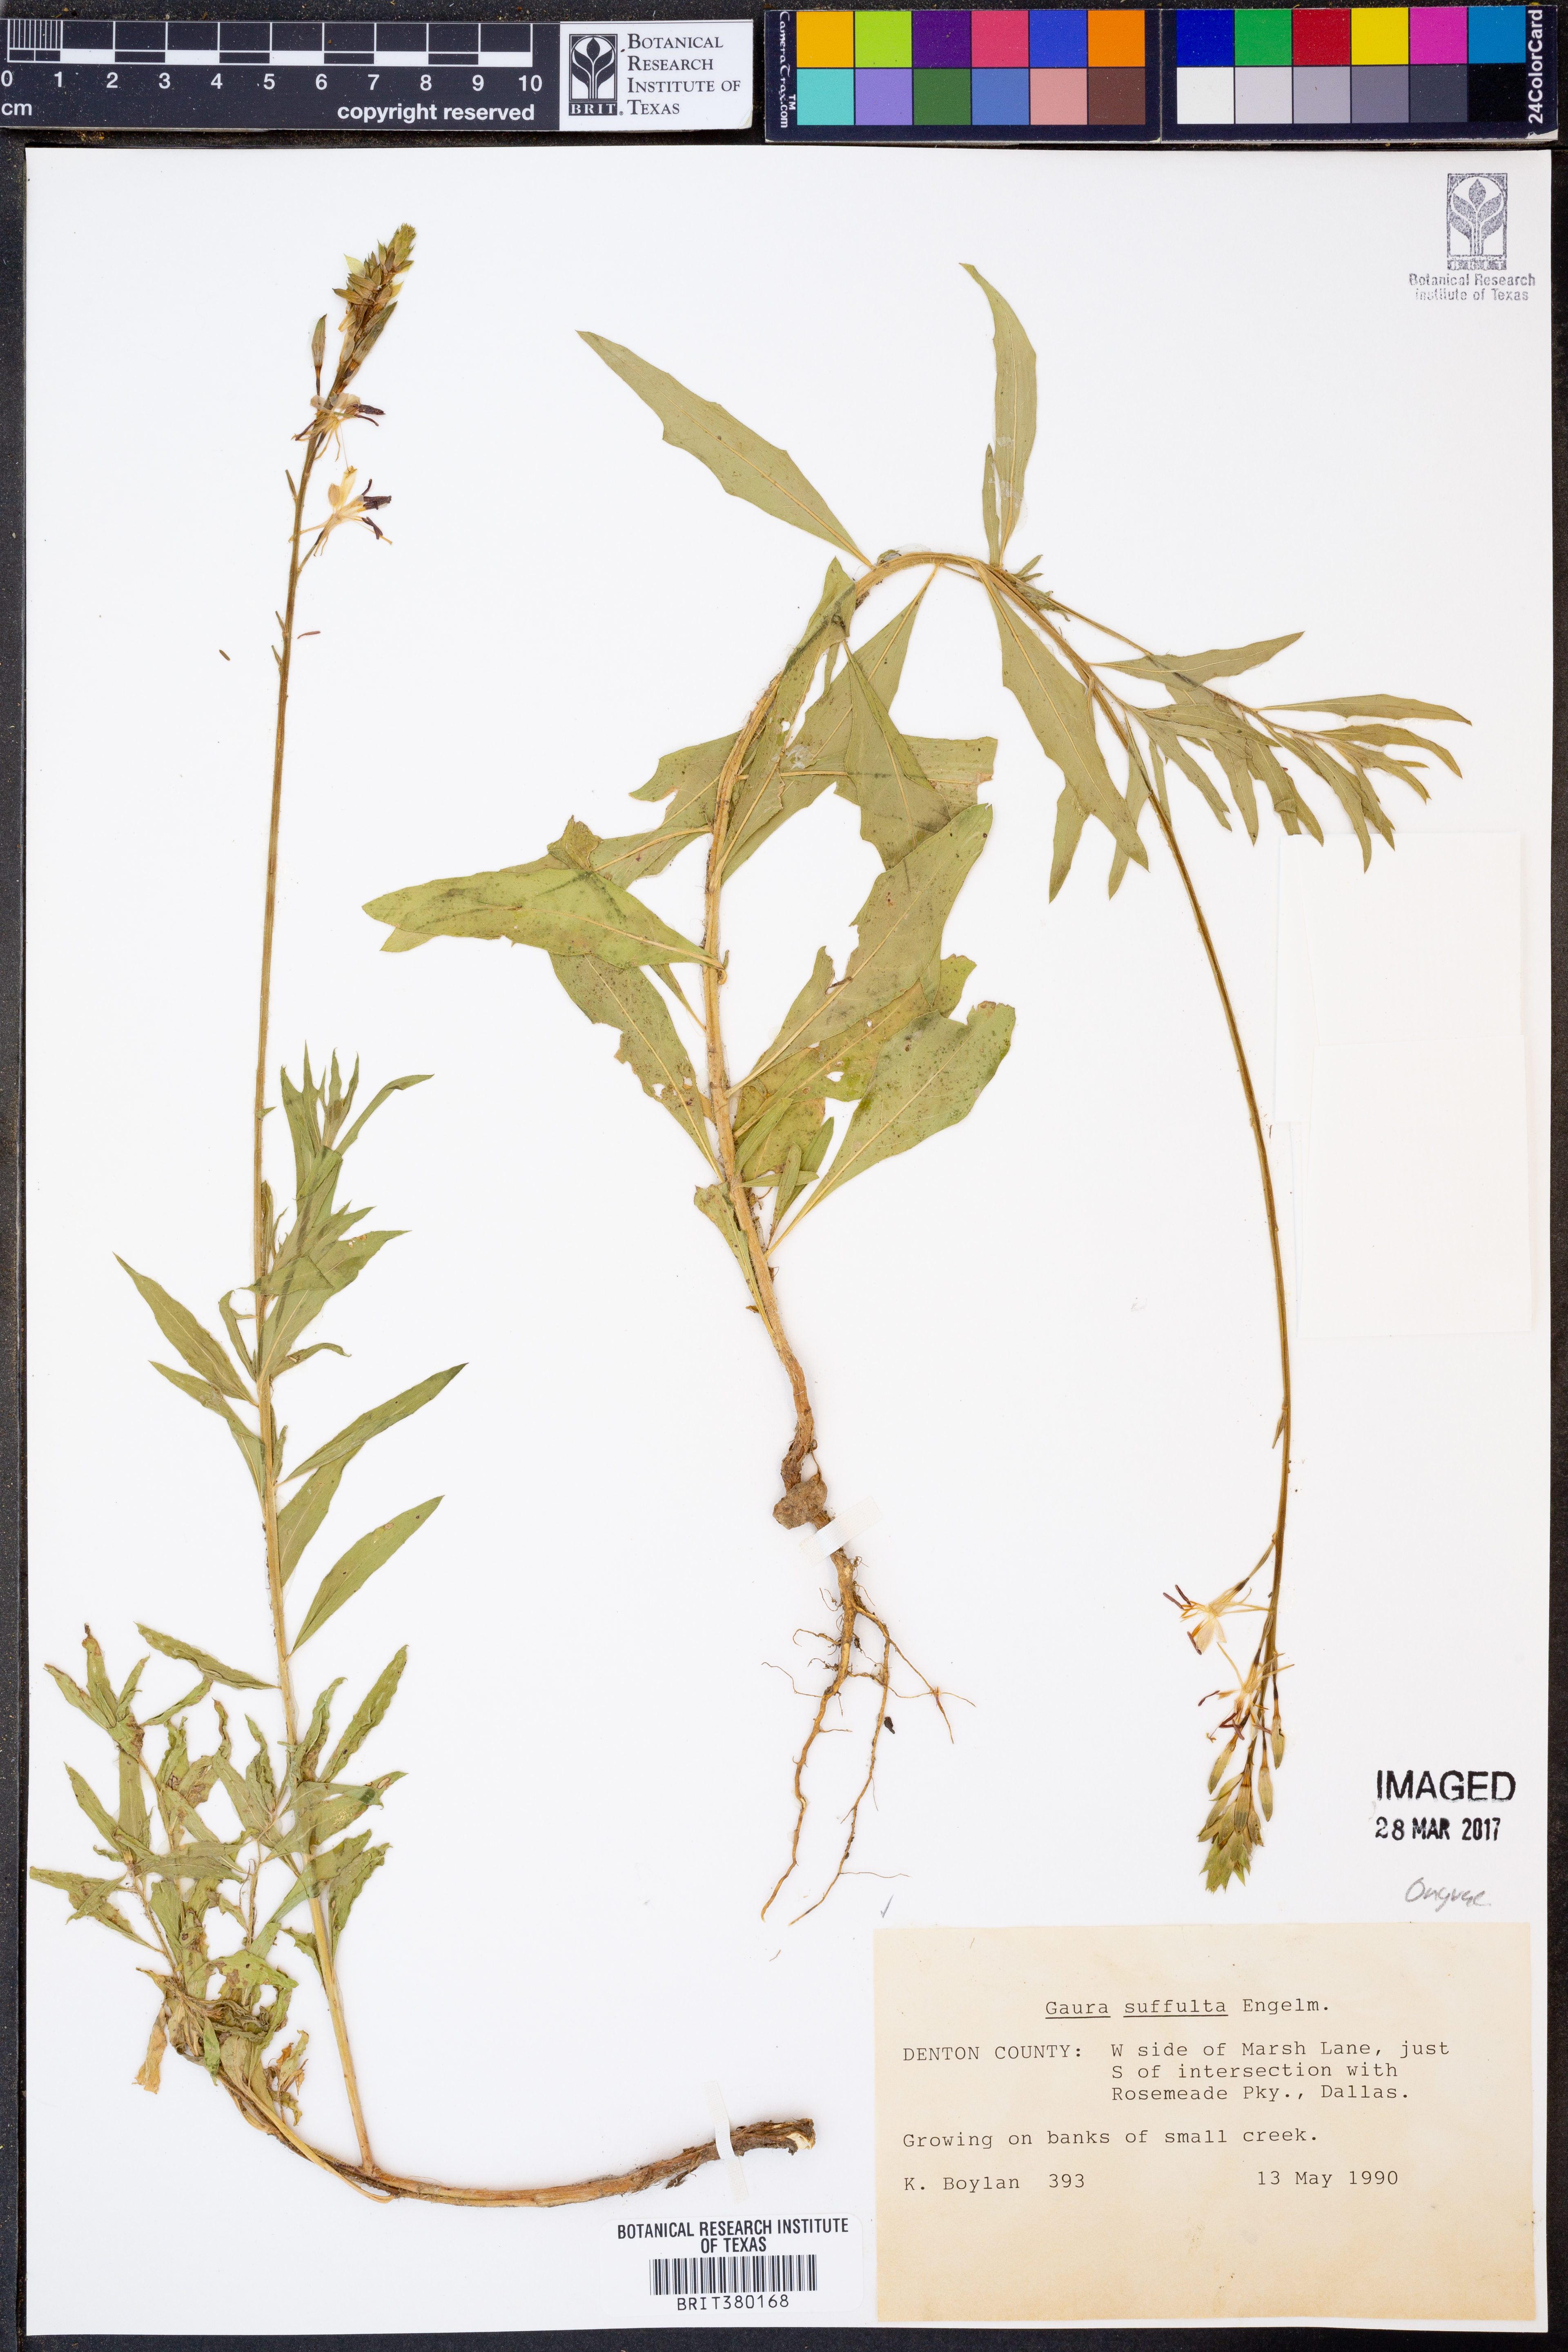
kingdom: Plantae
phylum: Tracheophyta
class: Magnoliopsida
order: Myrtales
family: Onagraceae
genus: Oenothera
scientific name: Oenothera Gaura suffulta
